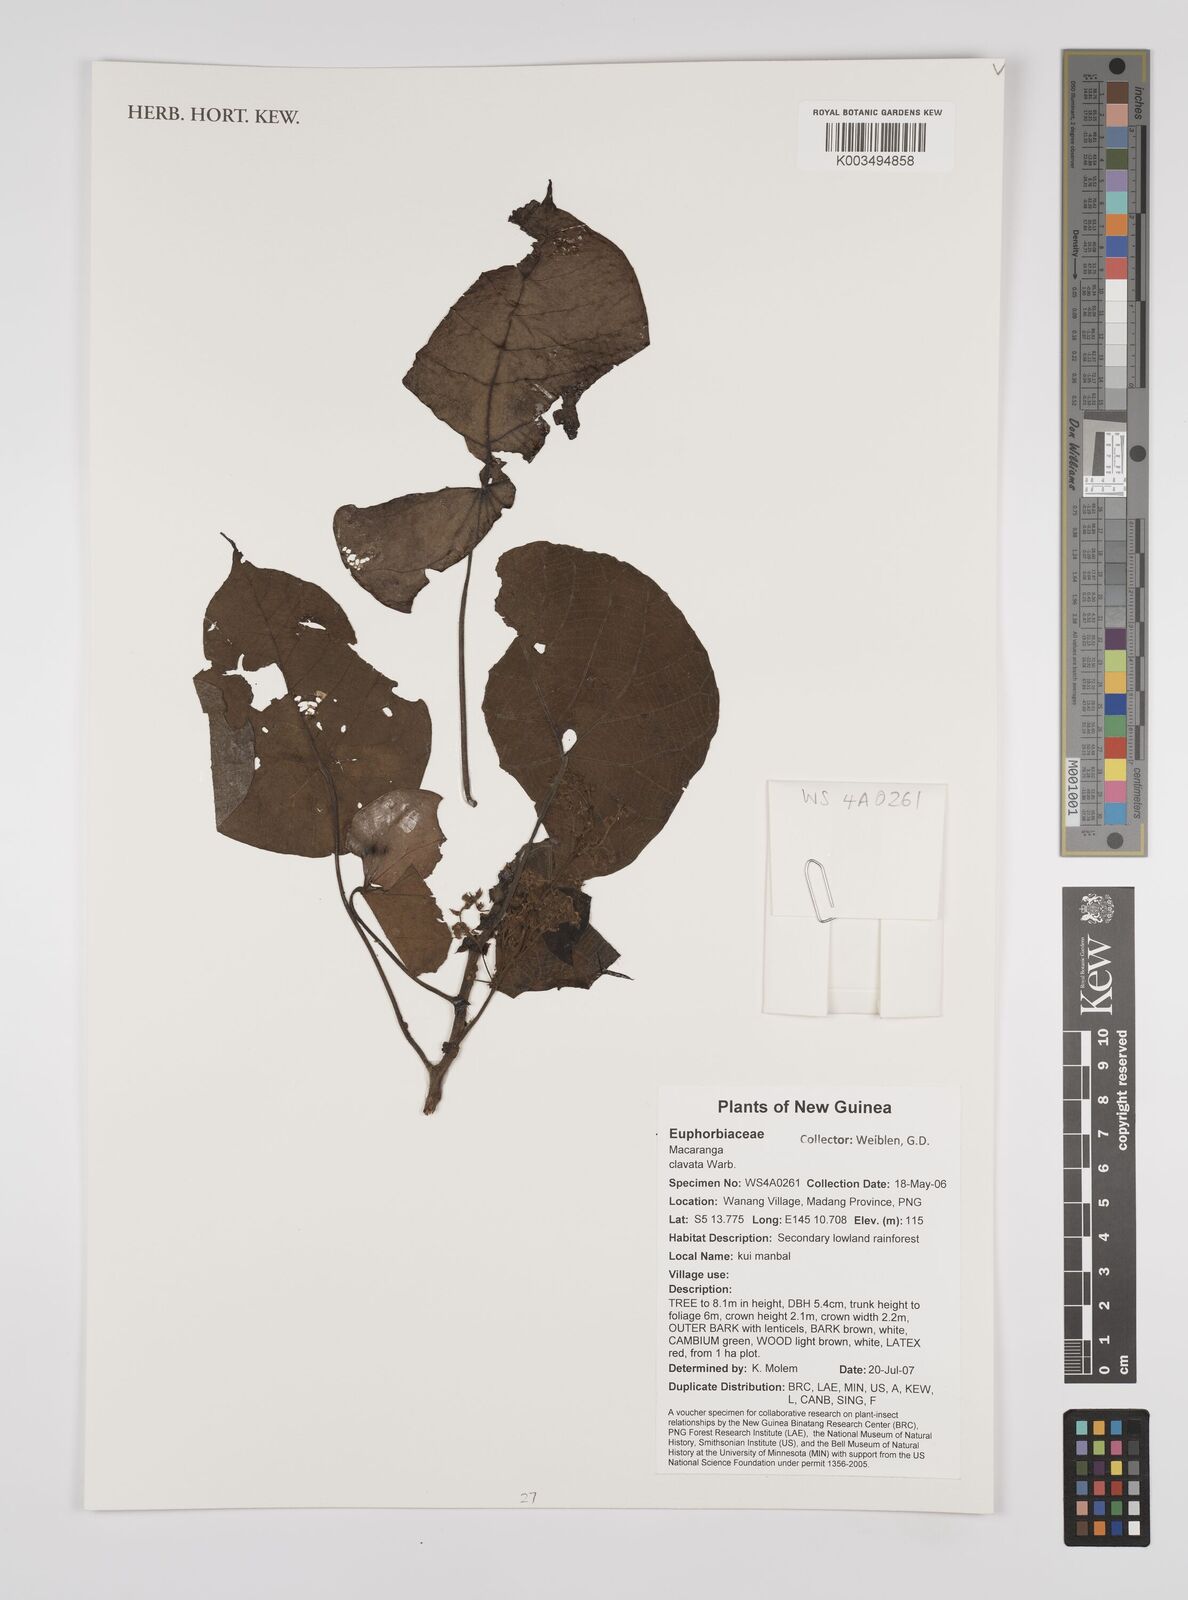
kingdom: Plantae
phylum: Tracheophyta
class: Magnoliopsida
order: Malpighiales
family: Euphorbiaceae
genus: Macaranga
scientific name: Macaranga clavata
